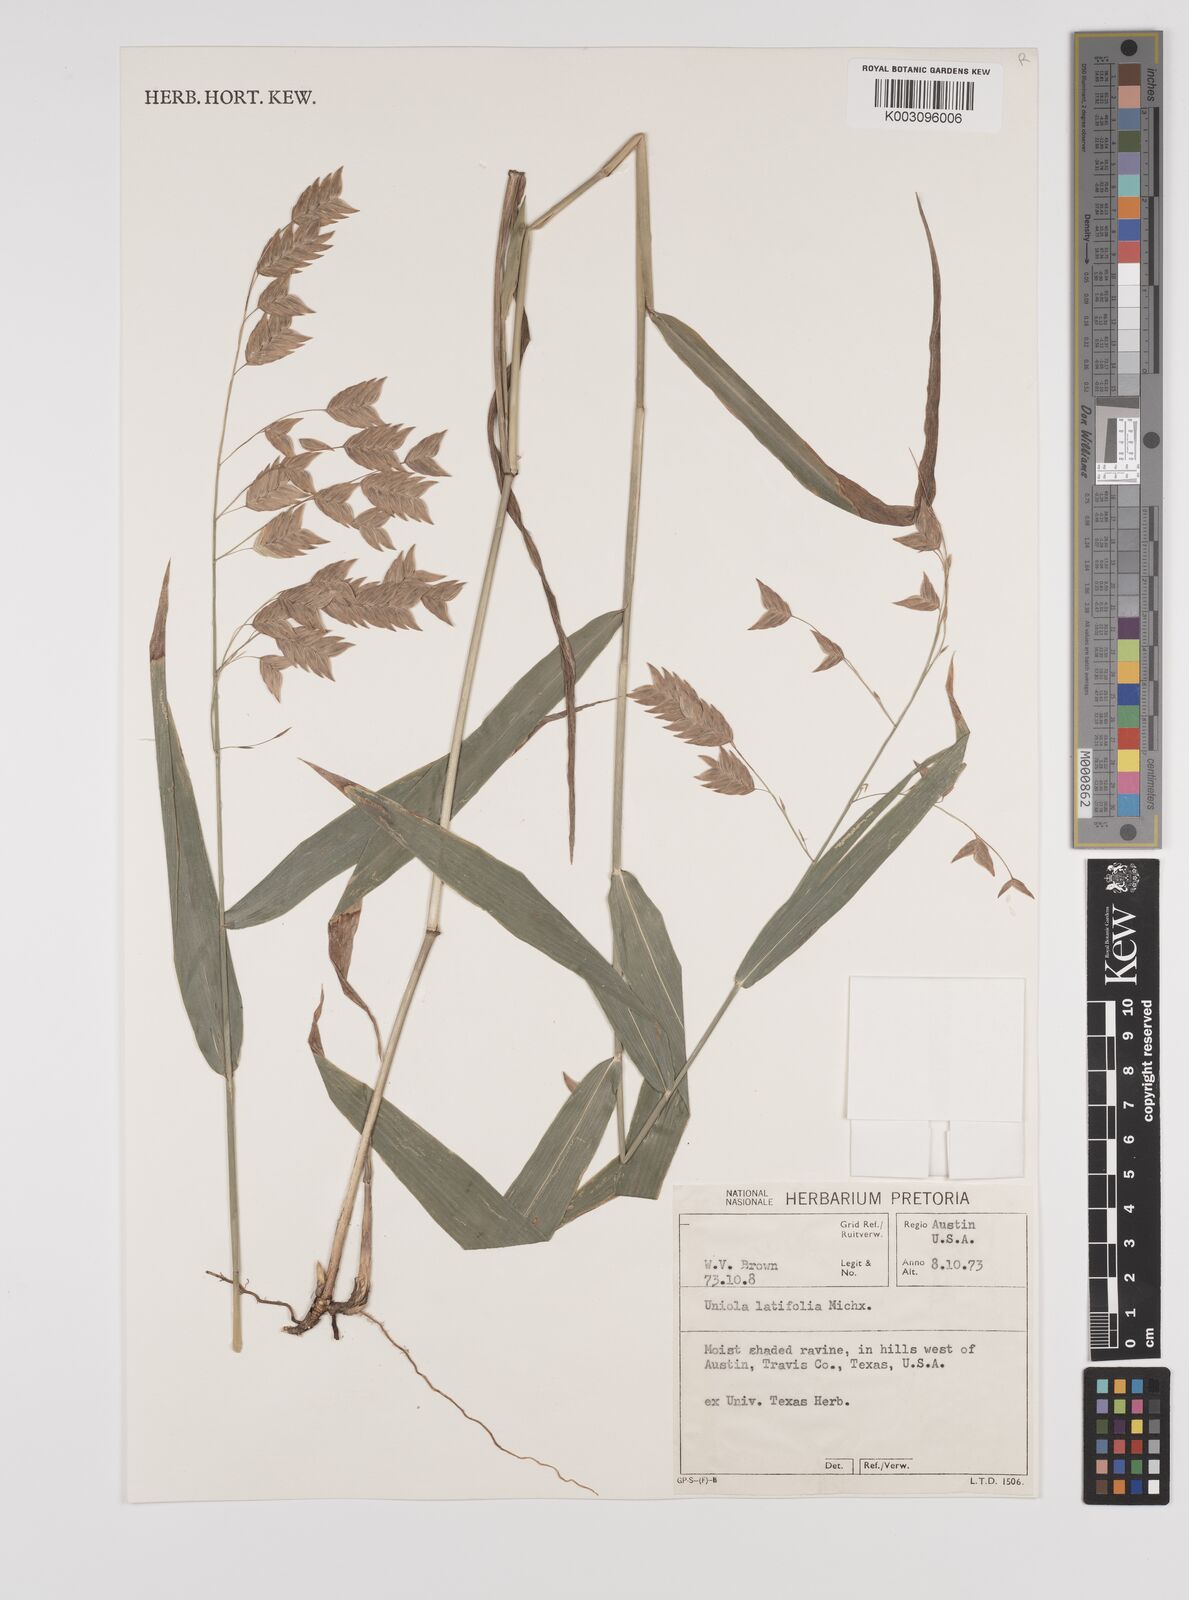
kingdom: Plantae
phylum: Tracheophyta
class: Liliopsida
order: Poales
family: Poaceae
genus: Chasmanthium
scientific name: Chasmanthium latifolium
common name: Broad-leaved chasmanthium
